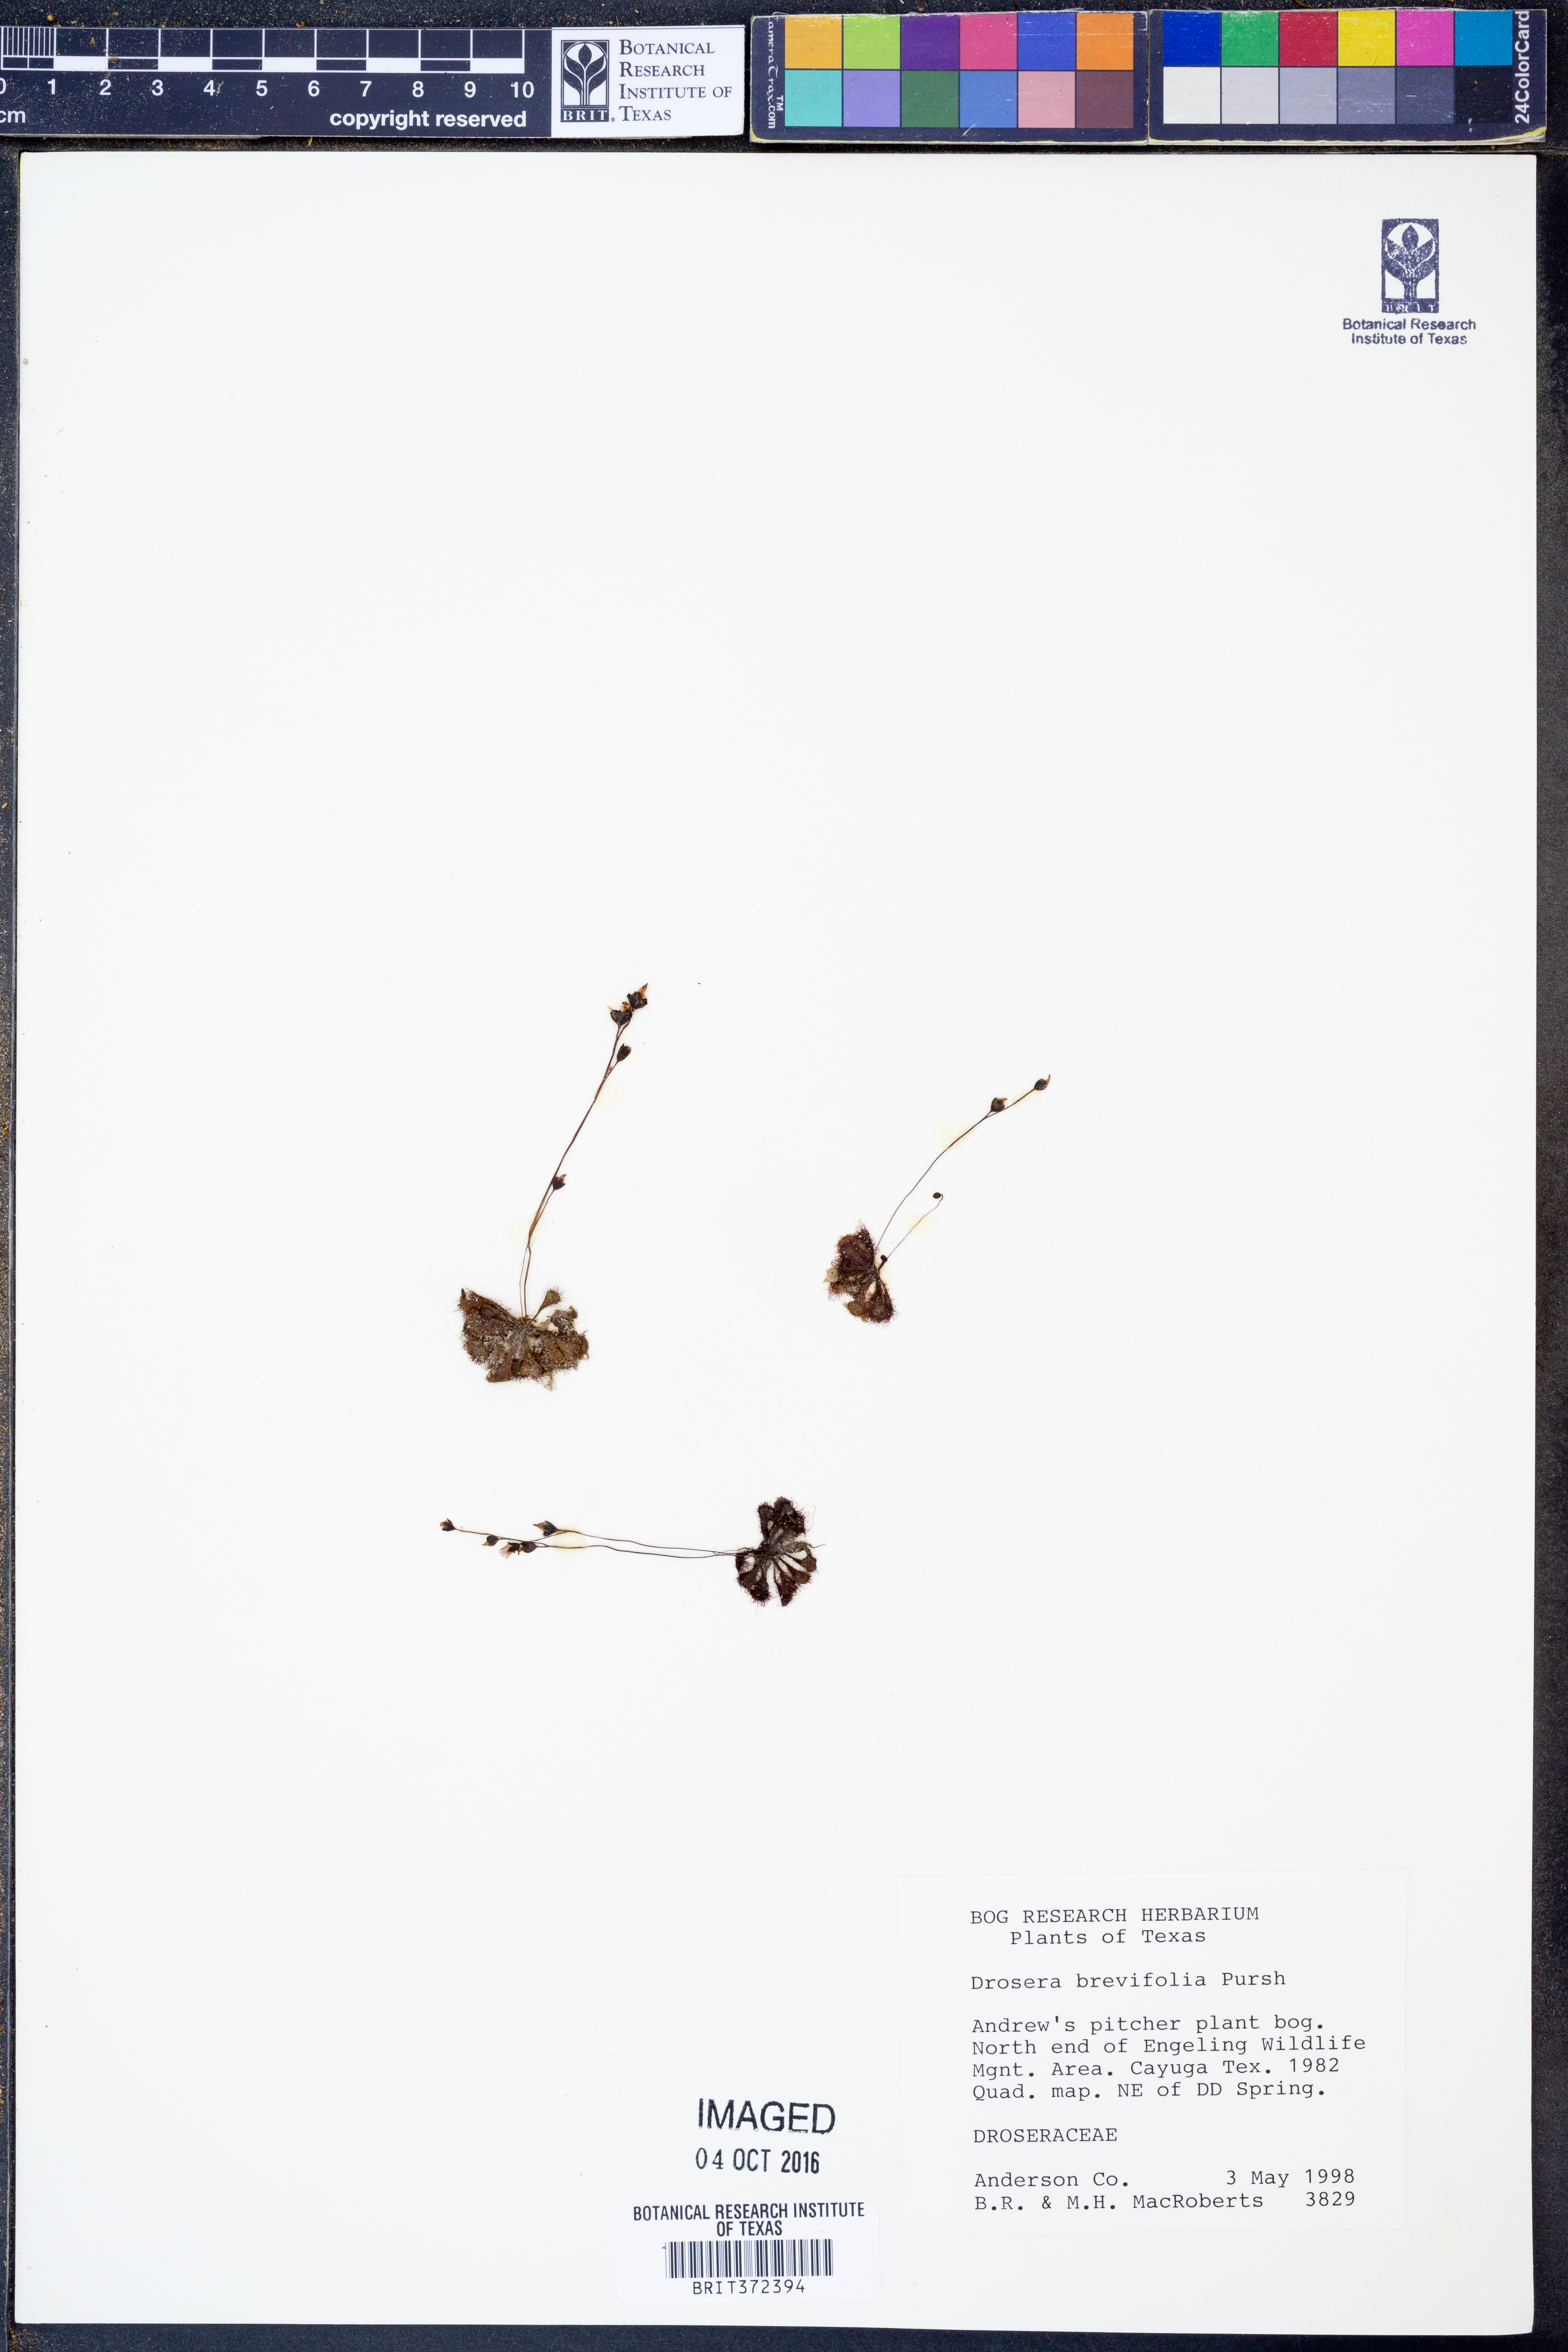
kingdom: Plantae
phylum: Tracheophyta
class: Magnoliopsida
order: Caryophyllales
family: Droseraceae
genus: Drosera
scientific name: Drosera brevifolia
